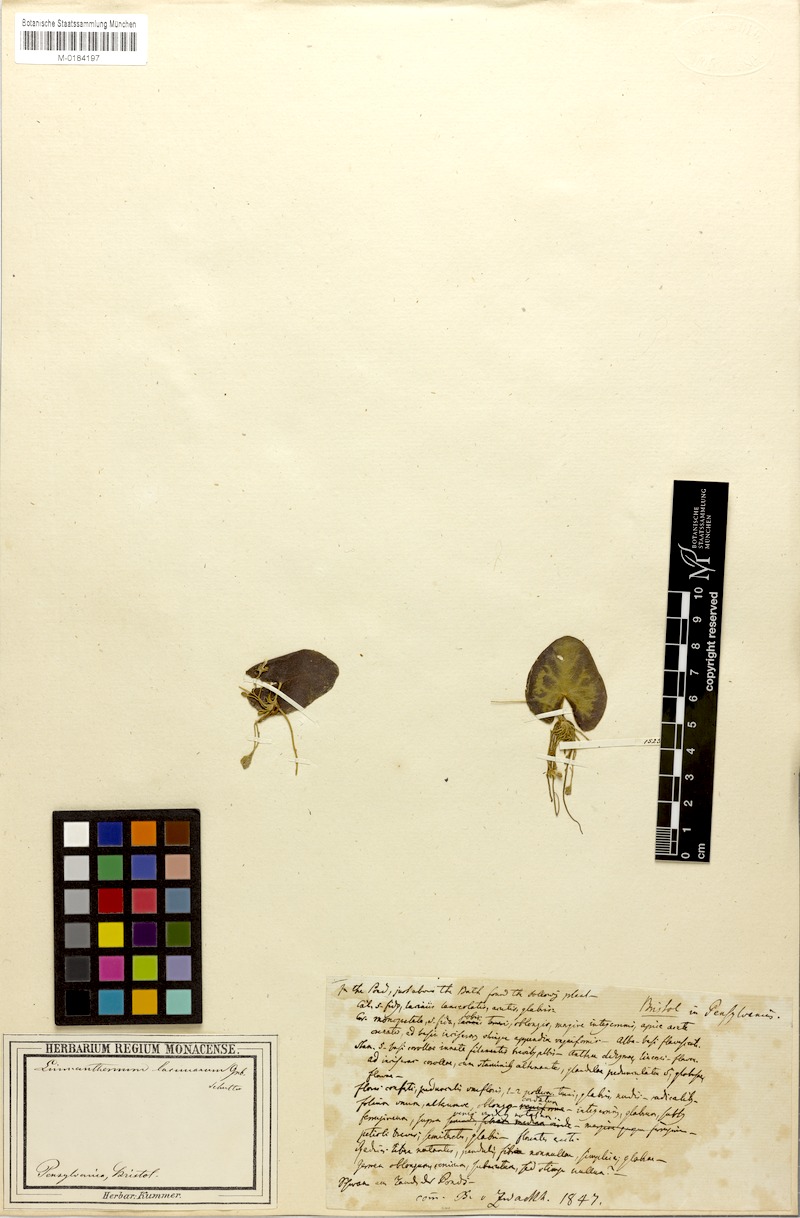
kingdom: Plantae
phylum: Tracheophyta
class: Magnoliopsida
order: Asterales
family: Menyanthaceae
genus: Nymphoides
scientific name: Nymphoides cordata
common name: Eight-angled floatingheart
